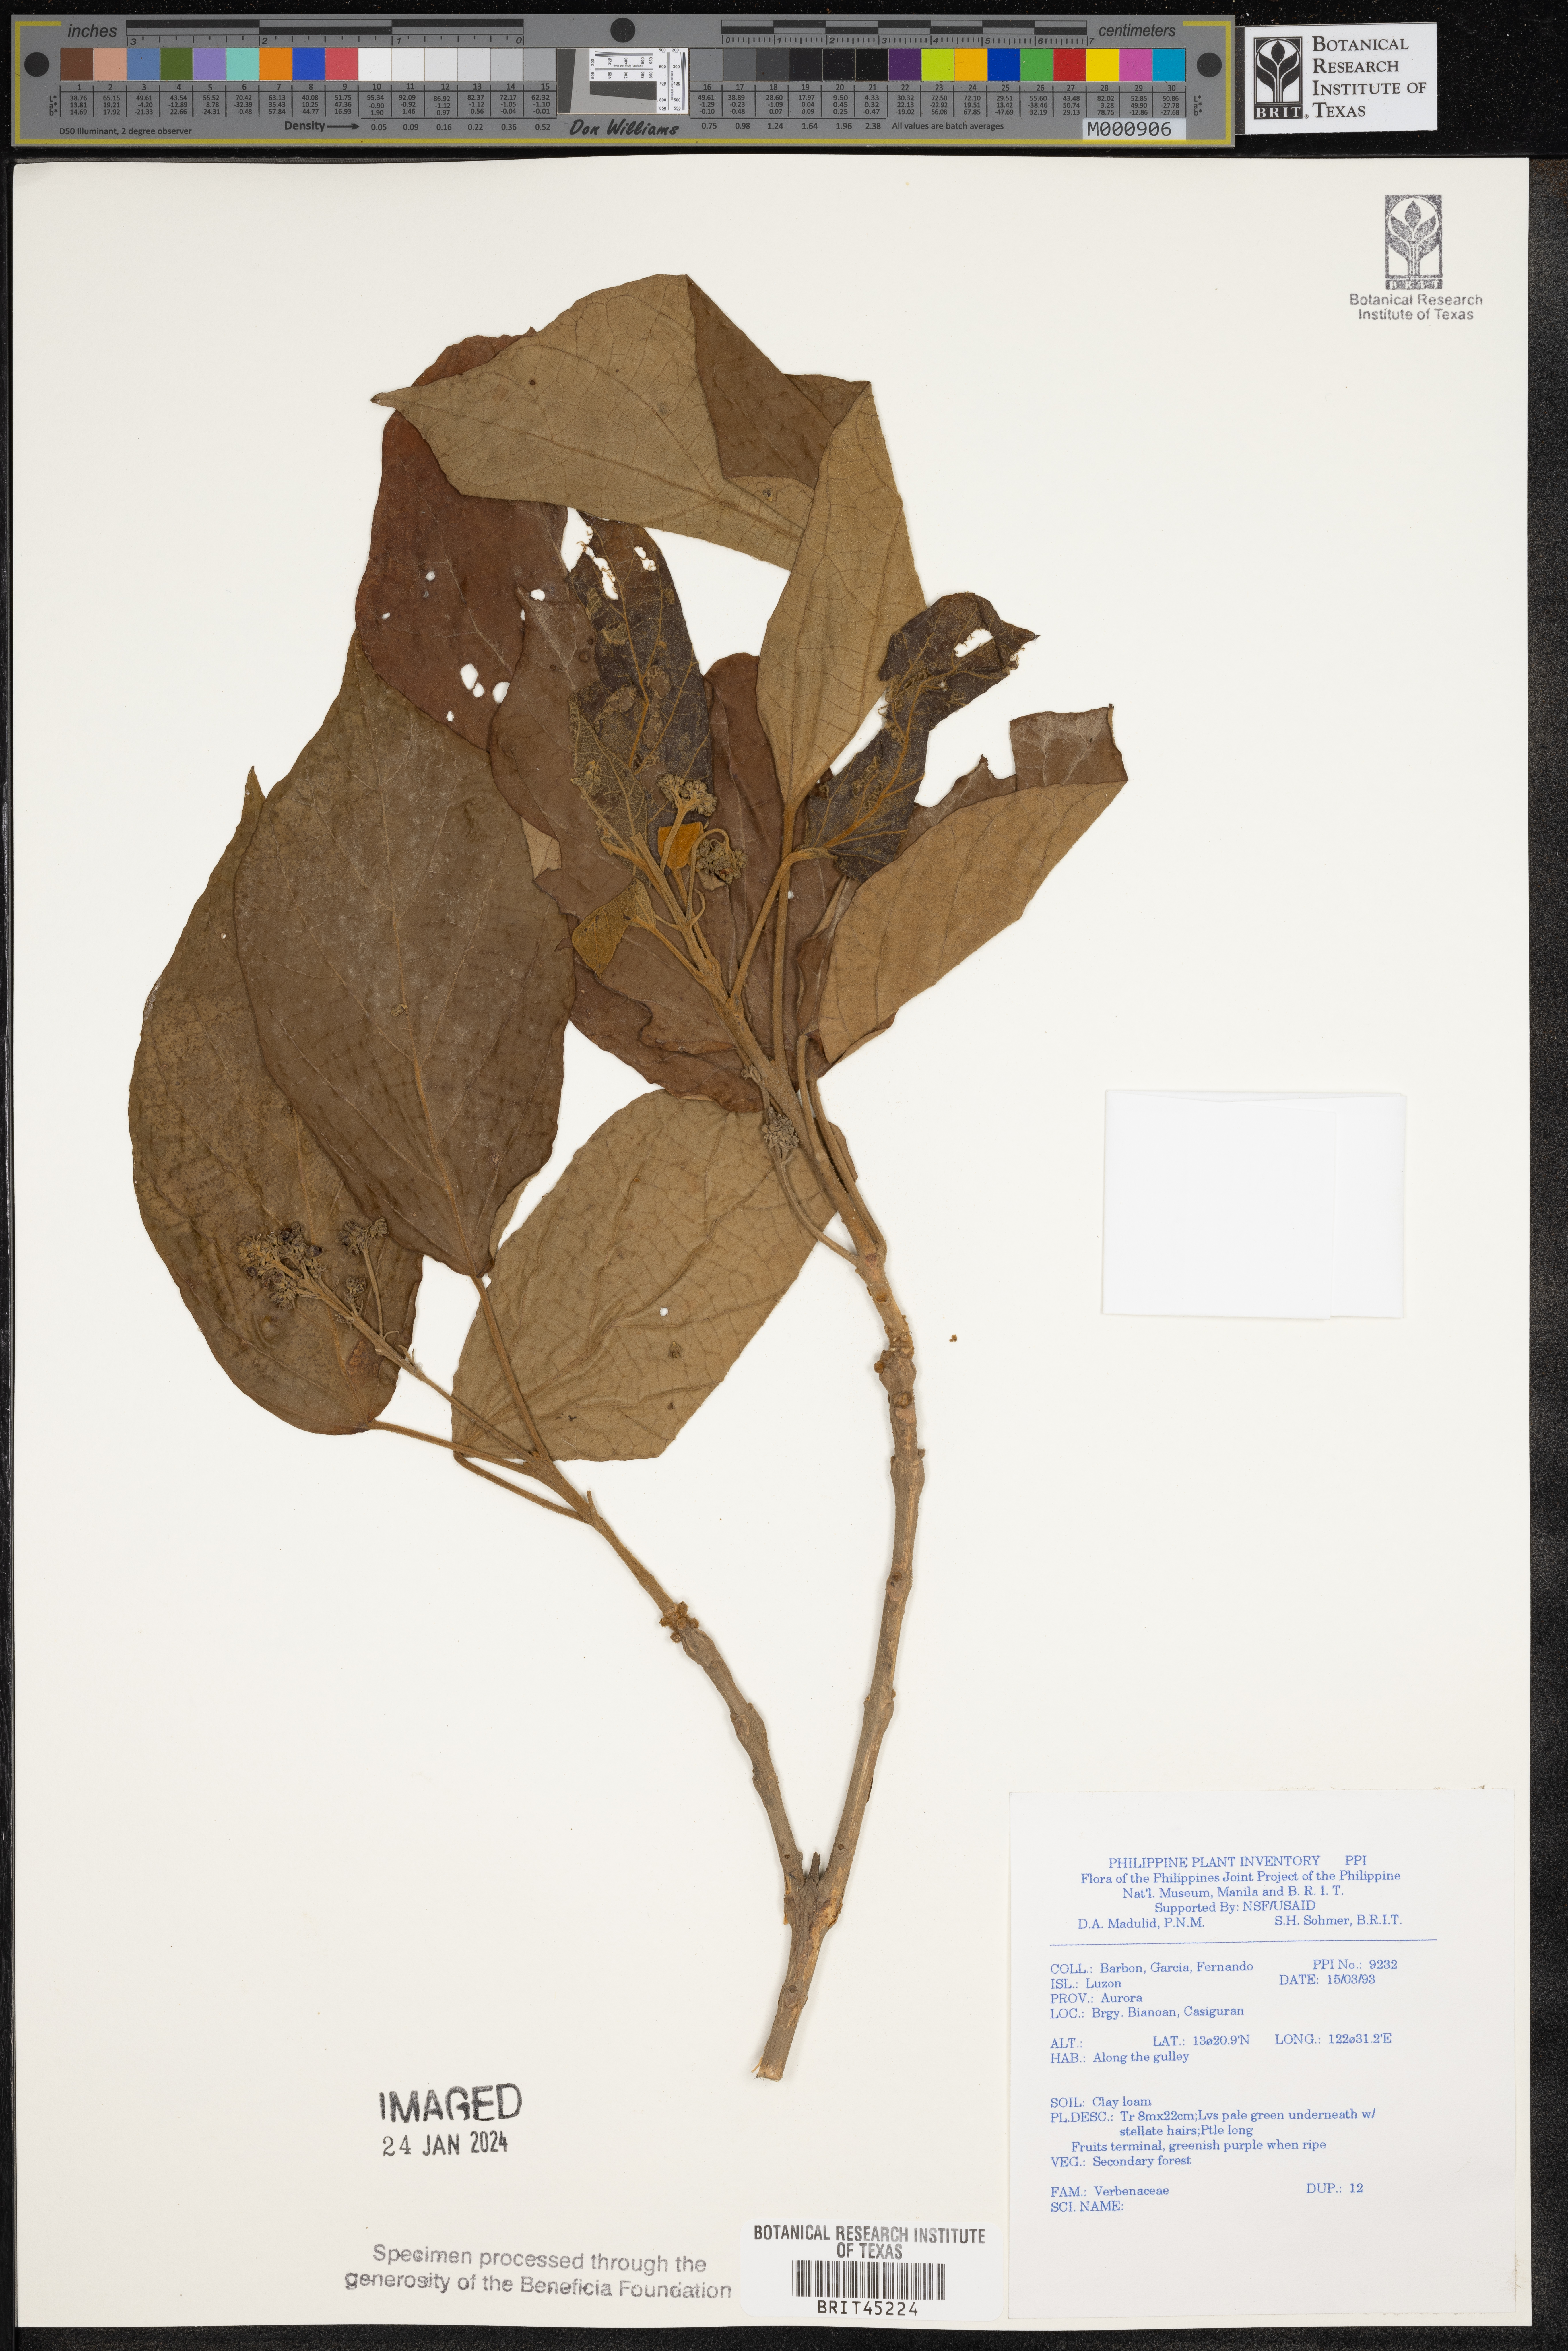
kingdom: Plantae
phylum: Tracheophyta
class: Magnoliopsida
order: Lamiales
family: Verbenaceae
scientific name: Verbenaceae
